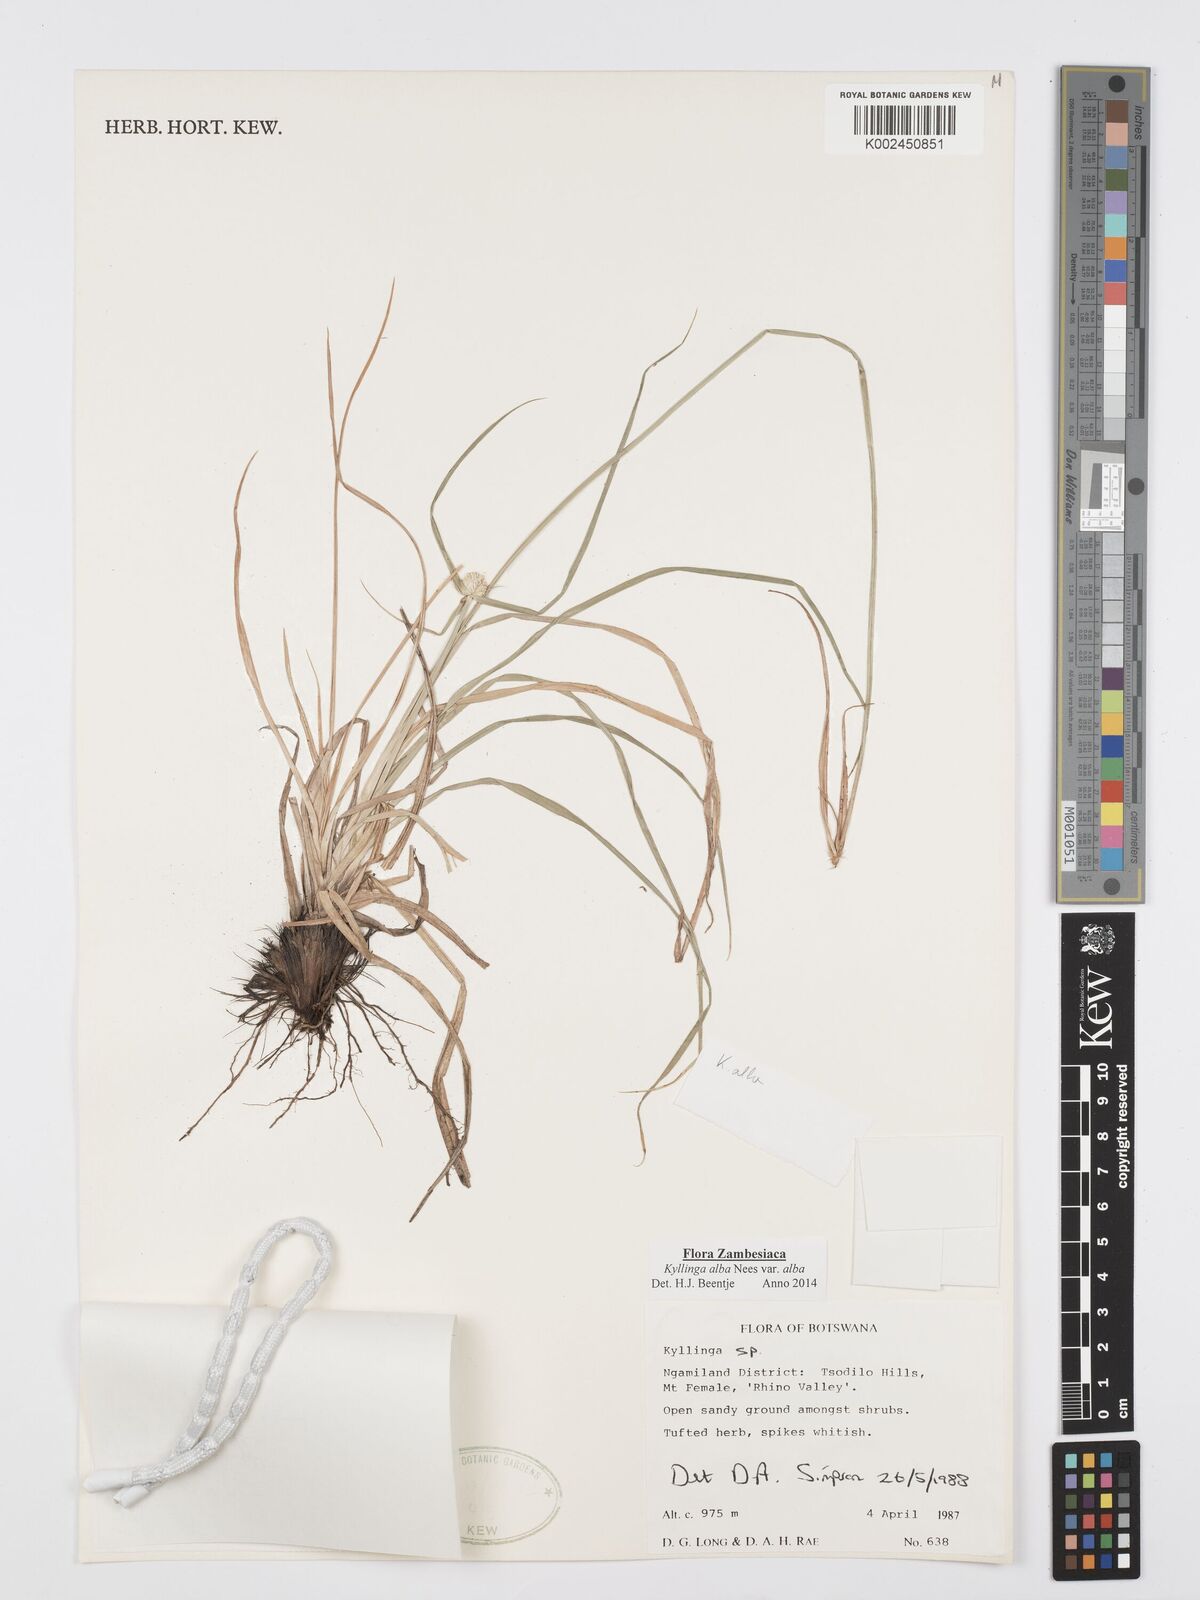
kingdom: Plantae
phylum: Tracheophyta
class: Liliopsida
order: Poales
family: Cyperaceae
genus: Cyperus
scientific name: Cyperus
